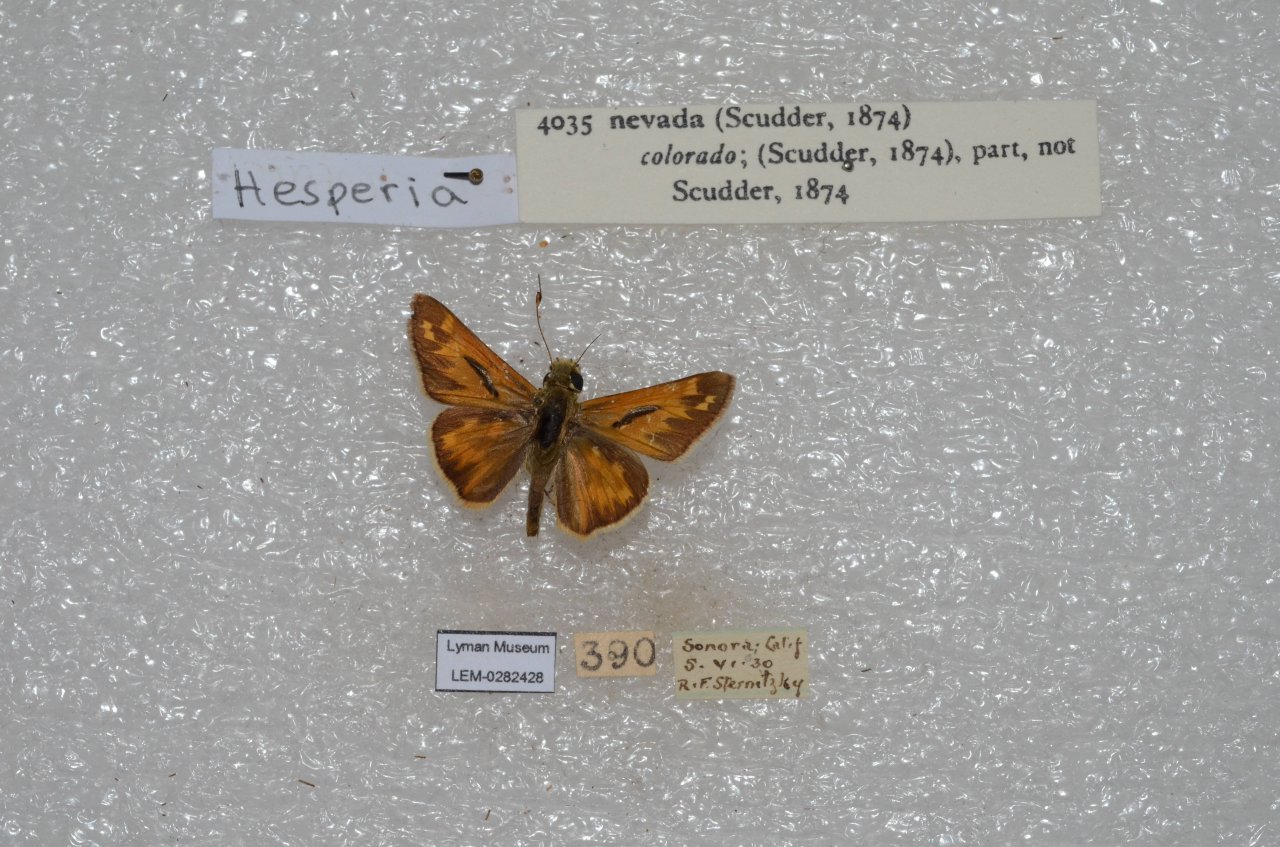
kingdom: Animalia
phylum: Arthropoda
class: Insecta
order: Lepidoptera
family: Hesperiidae
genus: Hesperia
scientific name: Hesperia nevada
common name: Nevada Skipper
